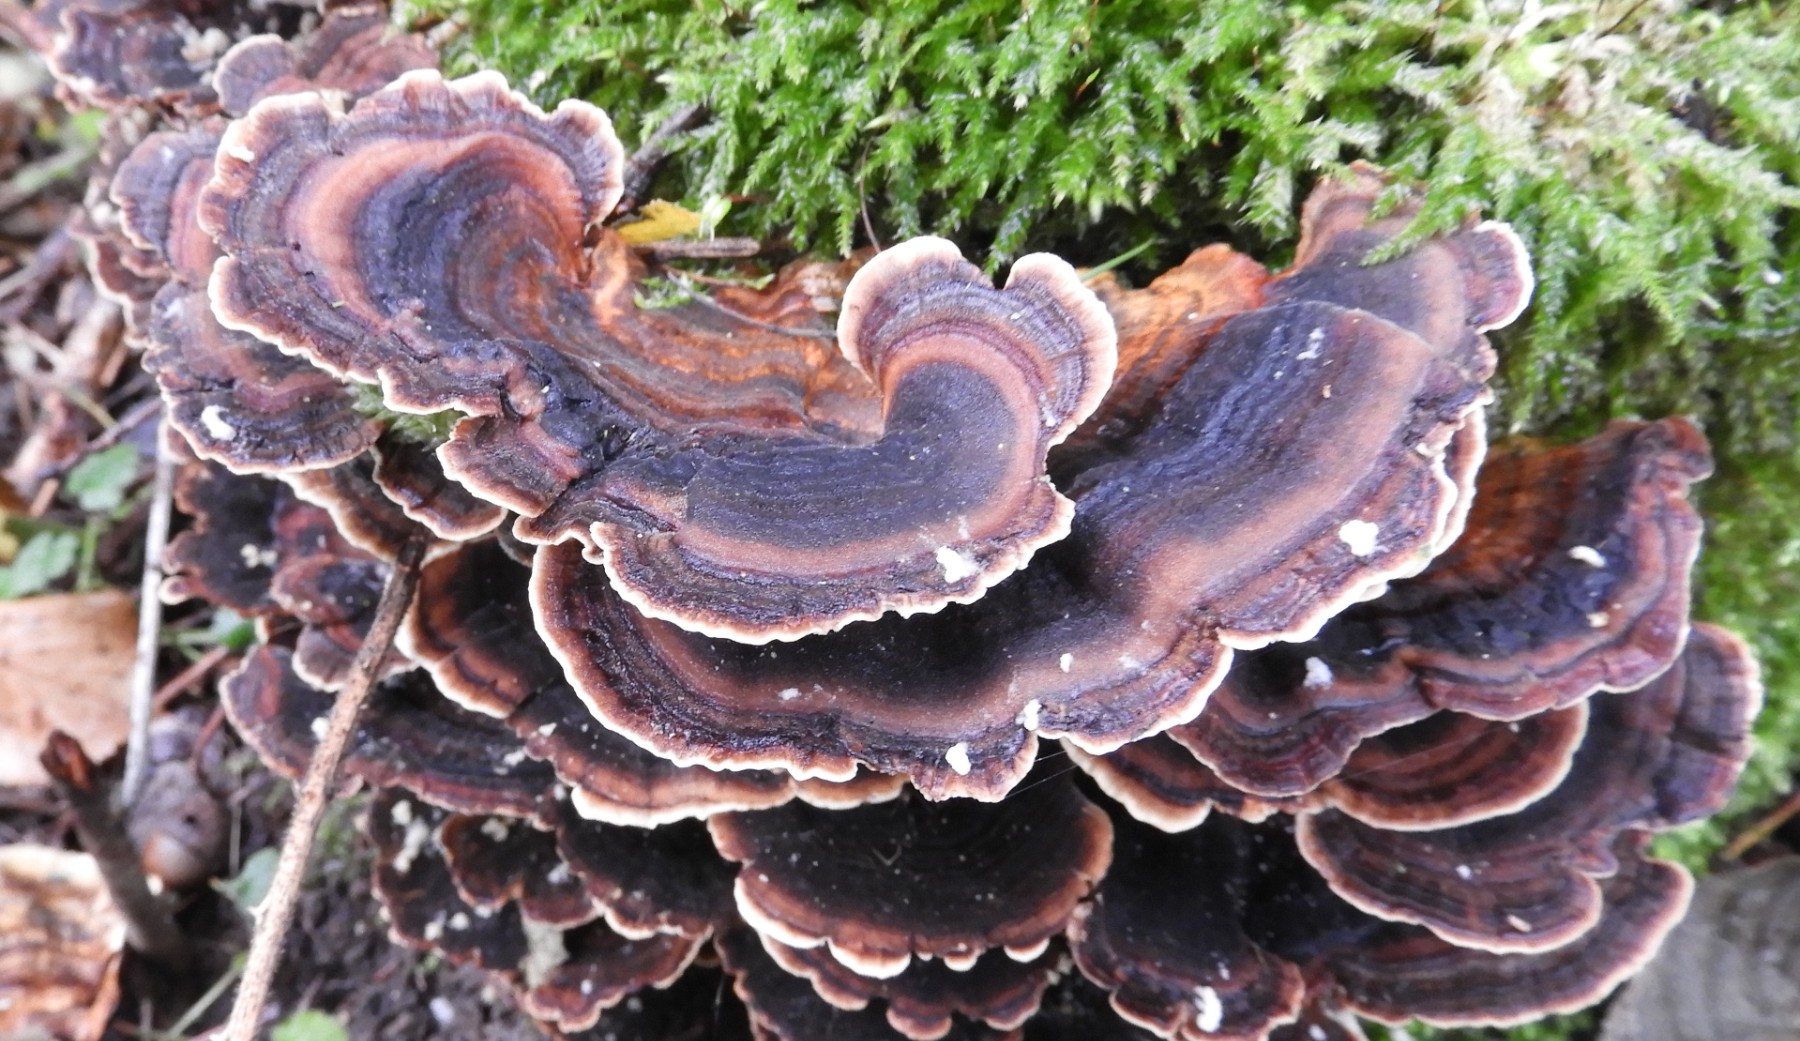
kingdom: Fungi
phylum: Basidiomycota
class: Agaricomycetes
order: Polyporales
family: Polyporaceae
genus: Trametes
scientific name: Trametes versicolor
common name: broget læderporesvamp
